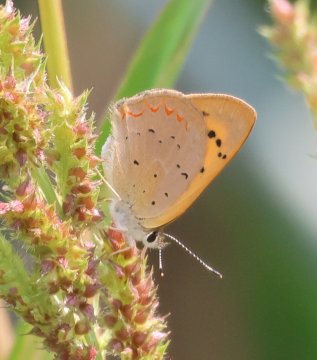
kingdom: Animalia
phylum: Arthropoda
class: Insecta
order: Lepidoptera
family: Sesiidae
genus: Sesia
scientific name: Sesia Lycaena helloides
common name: Purplish Copper
